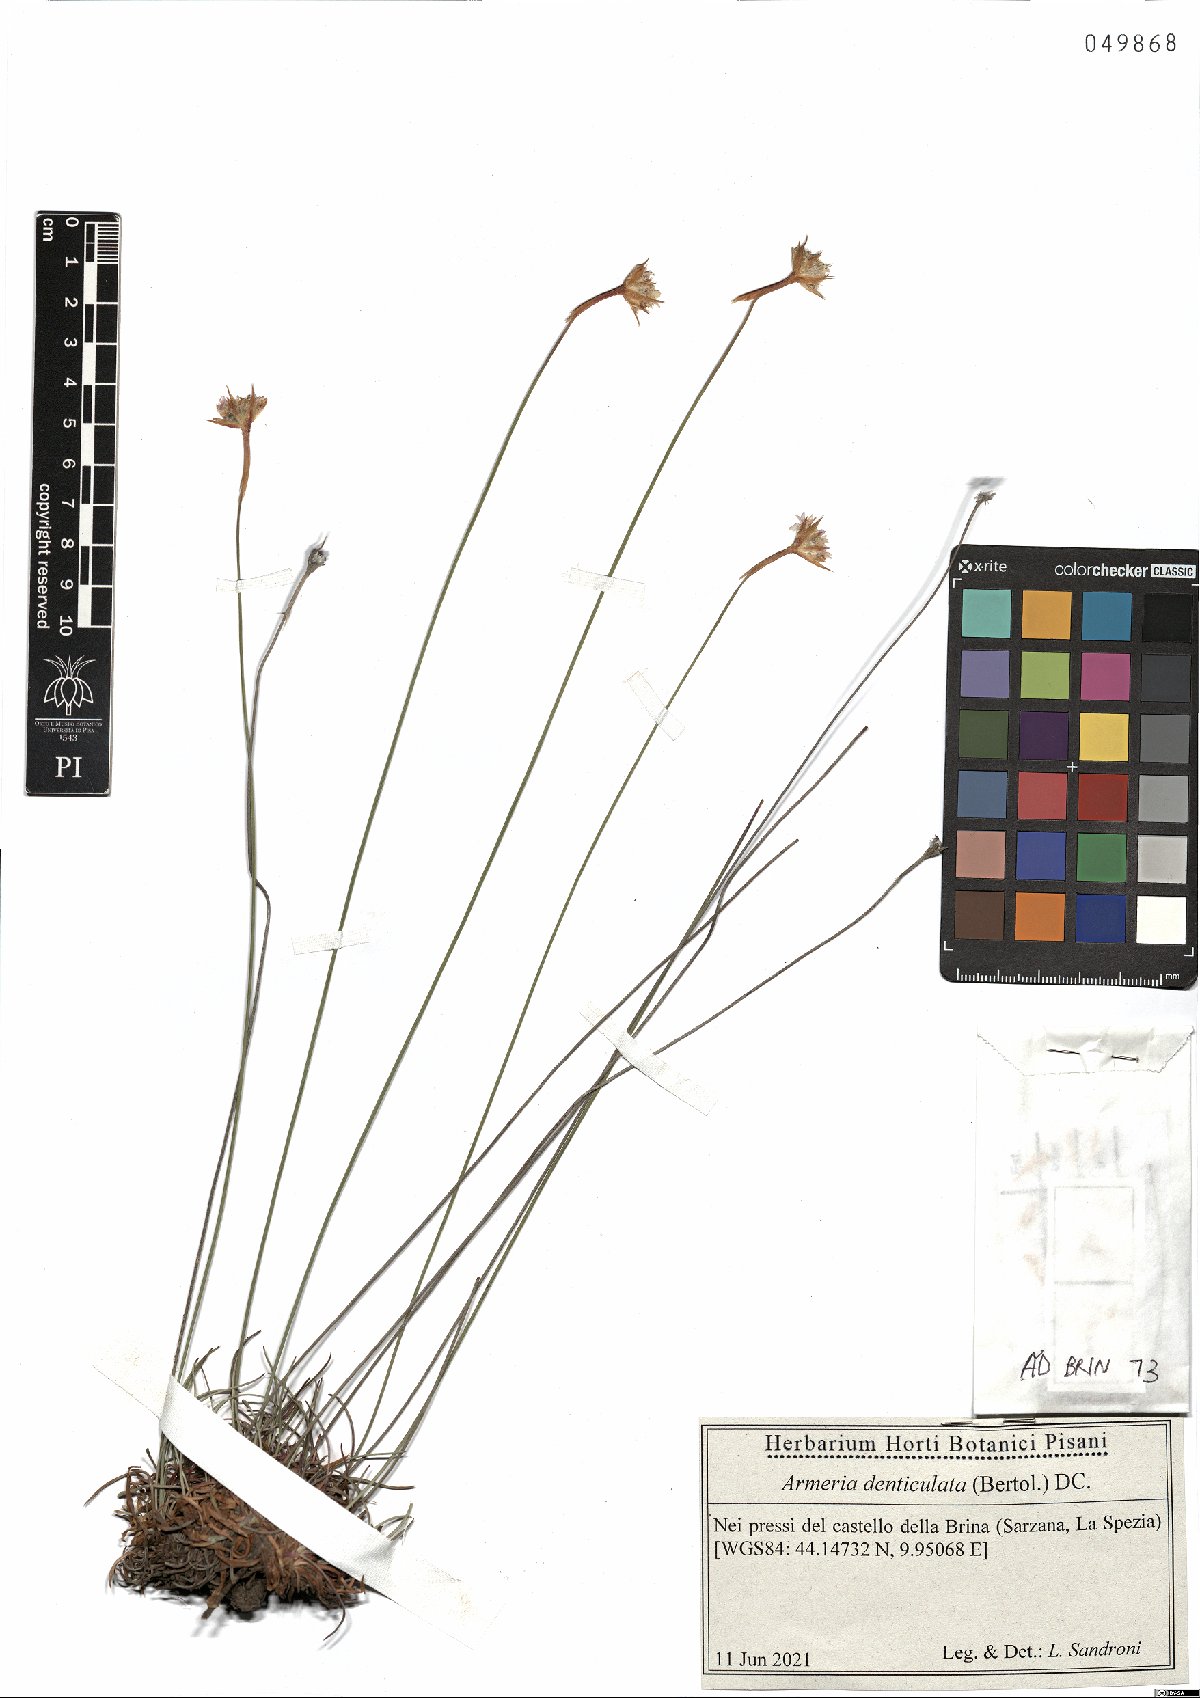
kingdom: Plantae
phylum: Tracheophyta
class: Magnoliopsida
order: Caryophyllales
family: Plumbaginaceae
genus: Armeria
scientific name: Armeria denticulata
